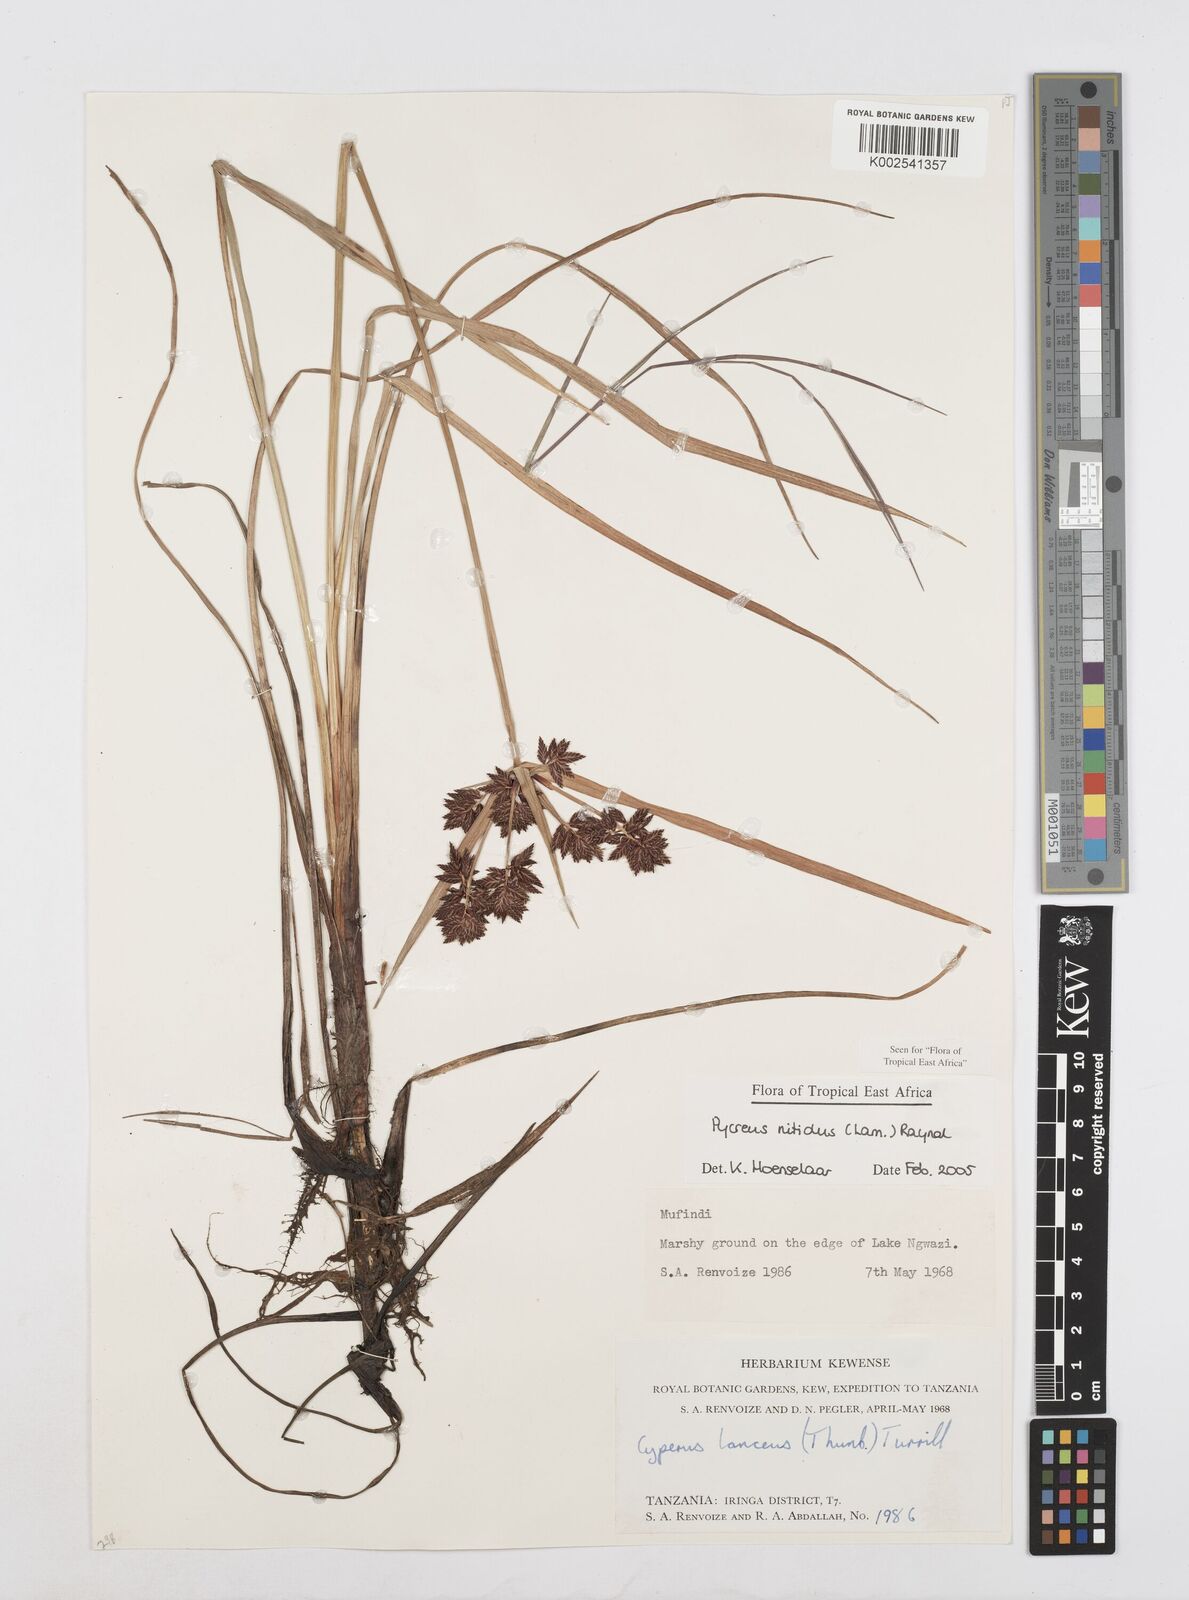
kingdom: Plantae
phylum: Tracheophyta
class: Liliopsida
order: Poales
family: Cyperaceae
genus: Cyperus
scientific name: Cyperus nitidus
